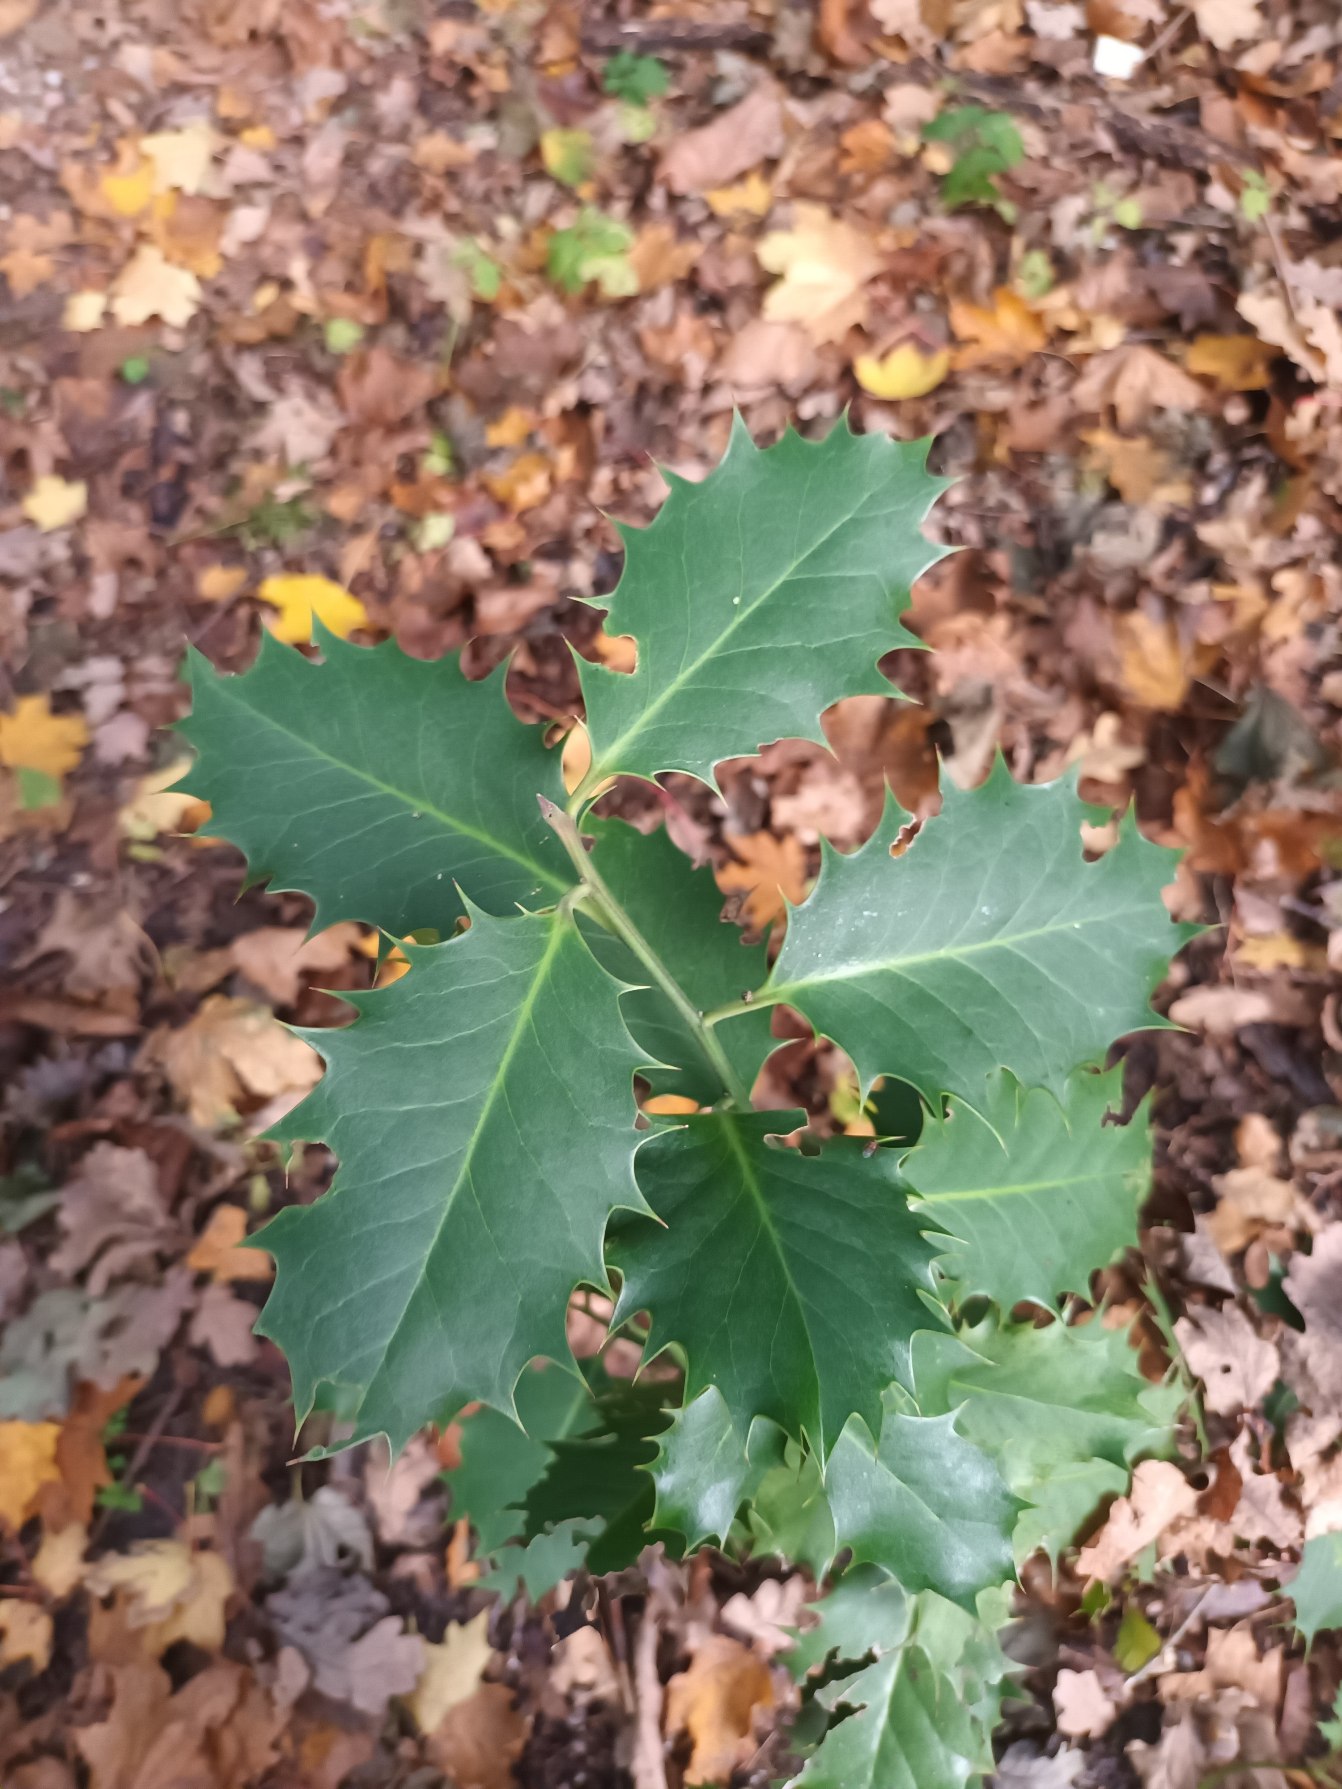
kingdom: Plantae
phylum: Tracheophyta
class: Magnoliopsida
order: Aquifoliales
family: Aquifoliaceae
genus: Ilex
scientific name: Ilex altaclerensis
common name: Storbladet kristtorn
